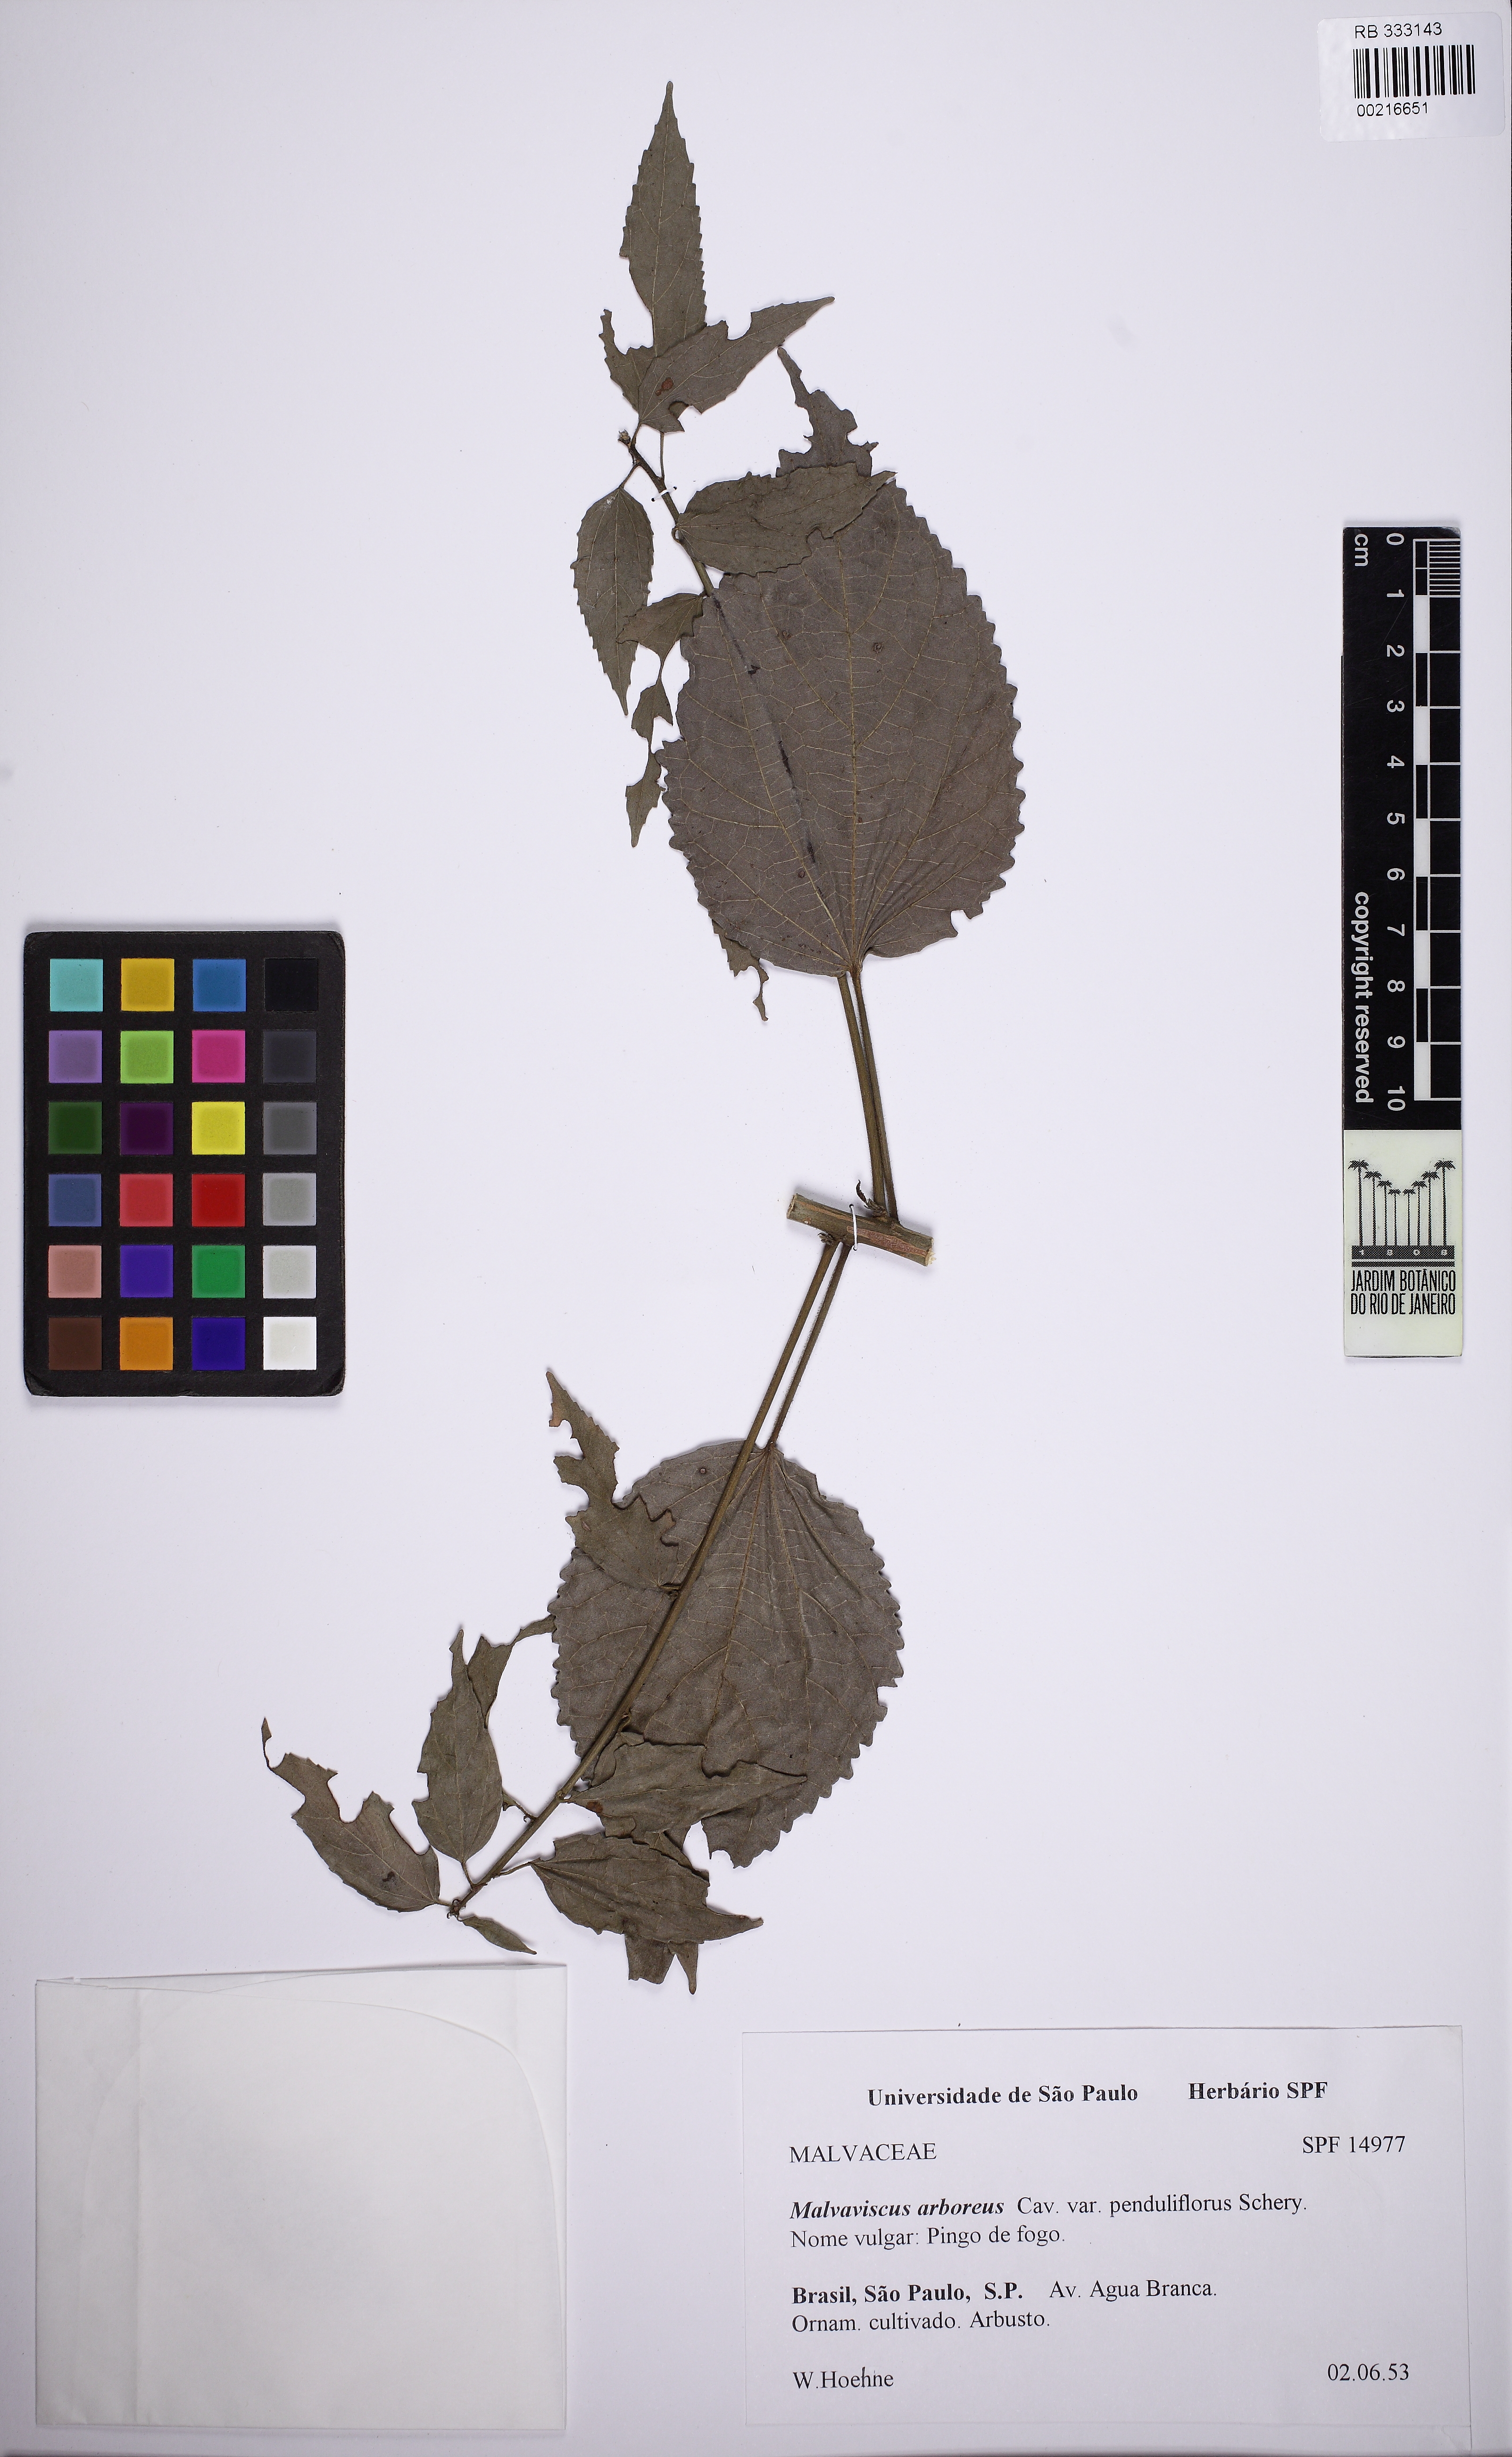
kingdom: Plantae
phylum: Tracheophyta
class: Magnoliopsida
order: Malvales
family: Malvaceae
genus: Malvaviscus
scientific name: Malvaviscus penduliflorus
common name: Mazapan
